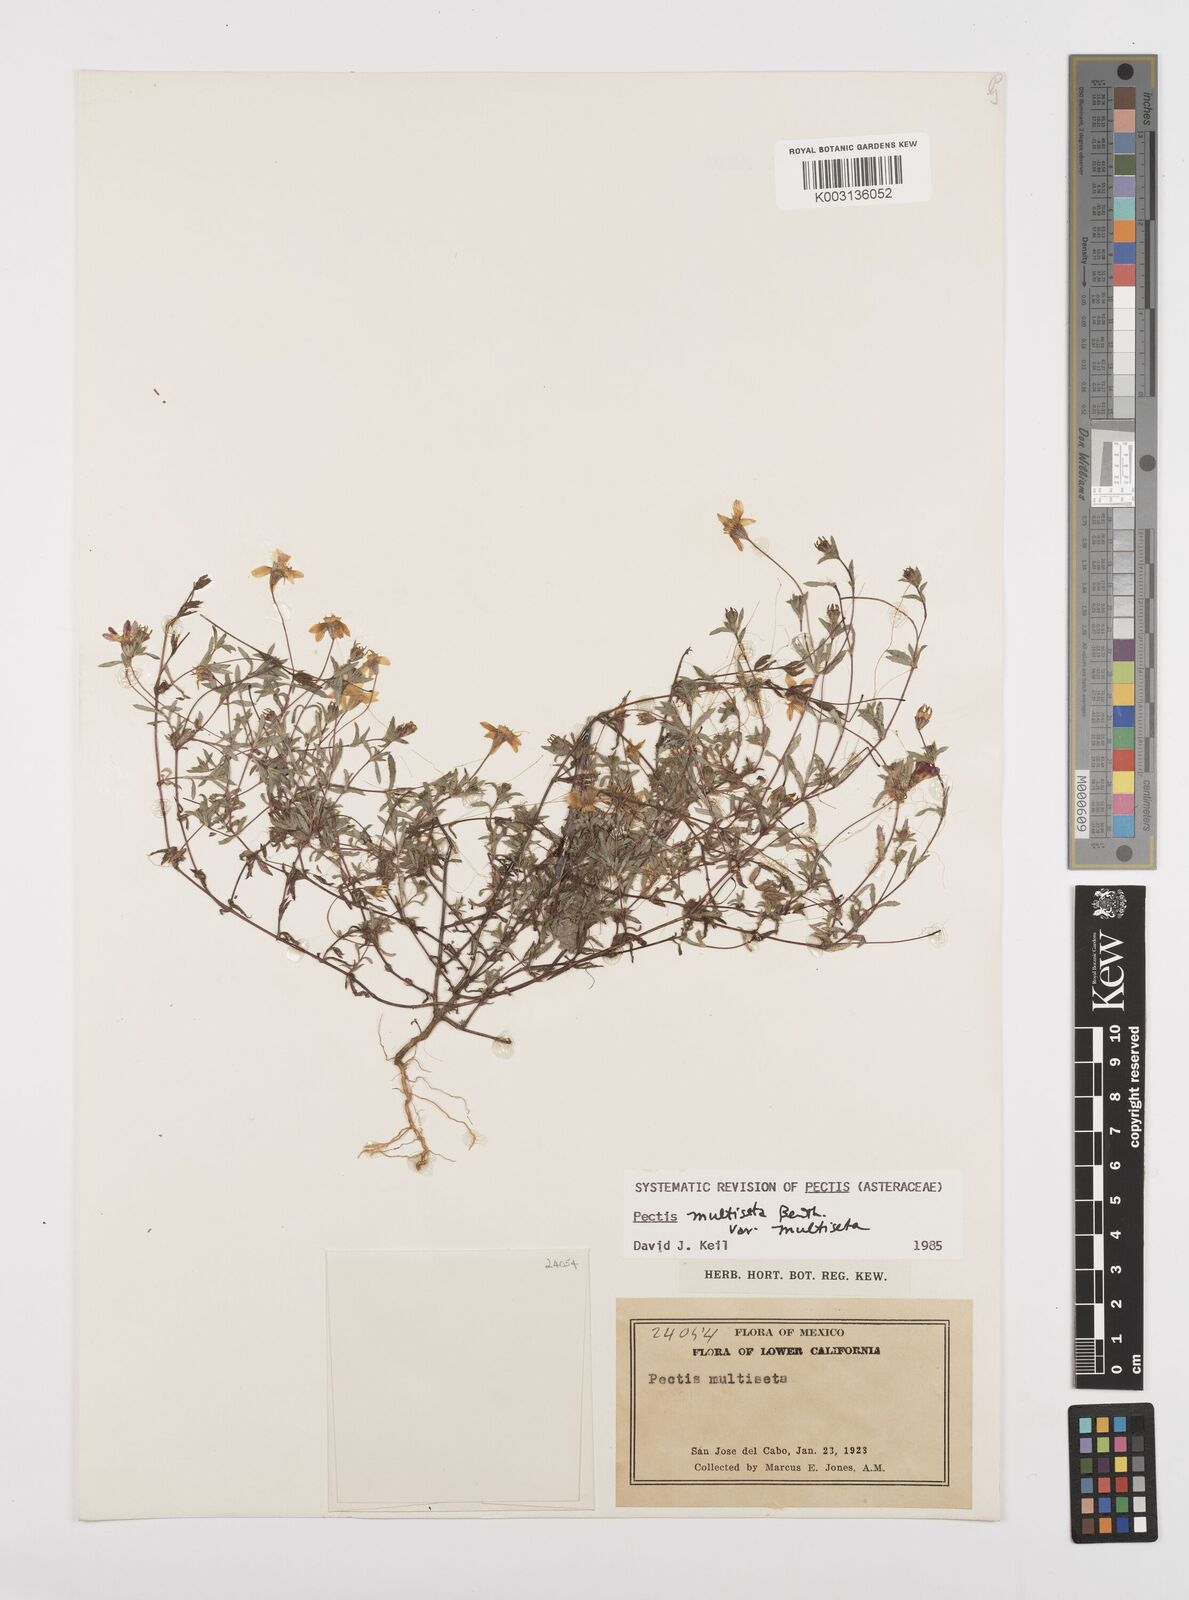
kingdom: Plantae
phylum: Tracheophyta
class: Magnoliopsida
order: Asterales
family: Asteraceae
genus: Pectis
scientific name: Pectis multiseta
